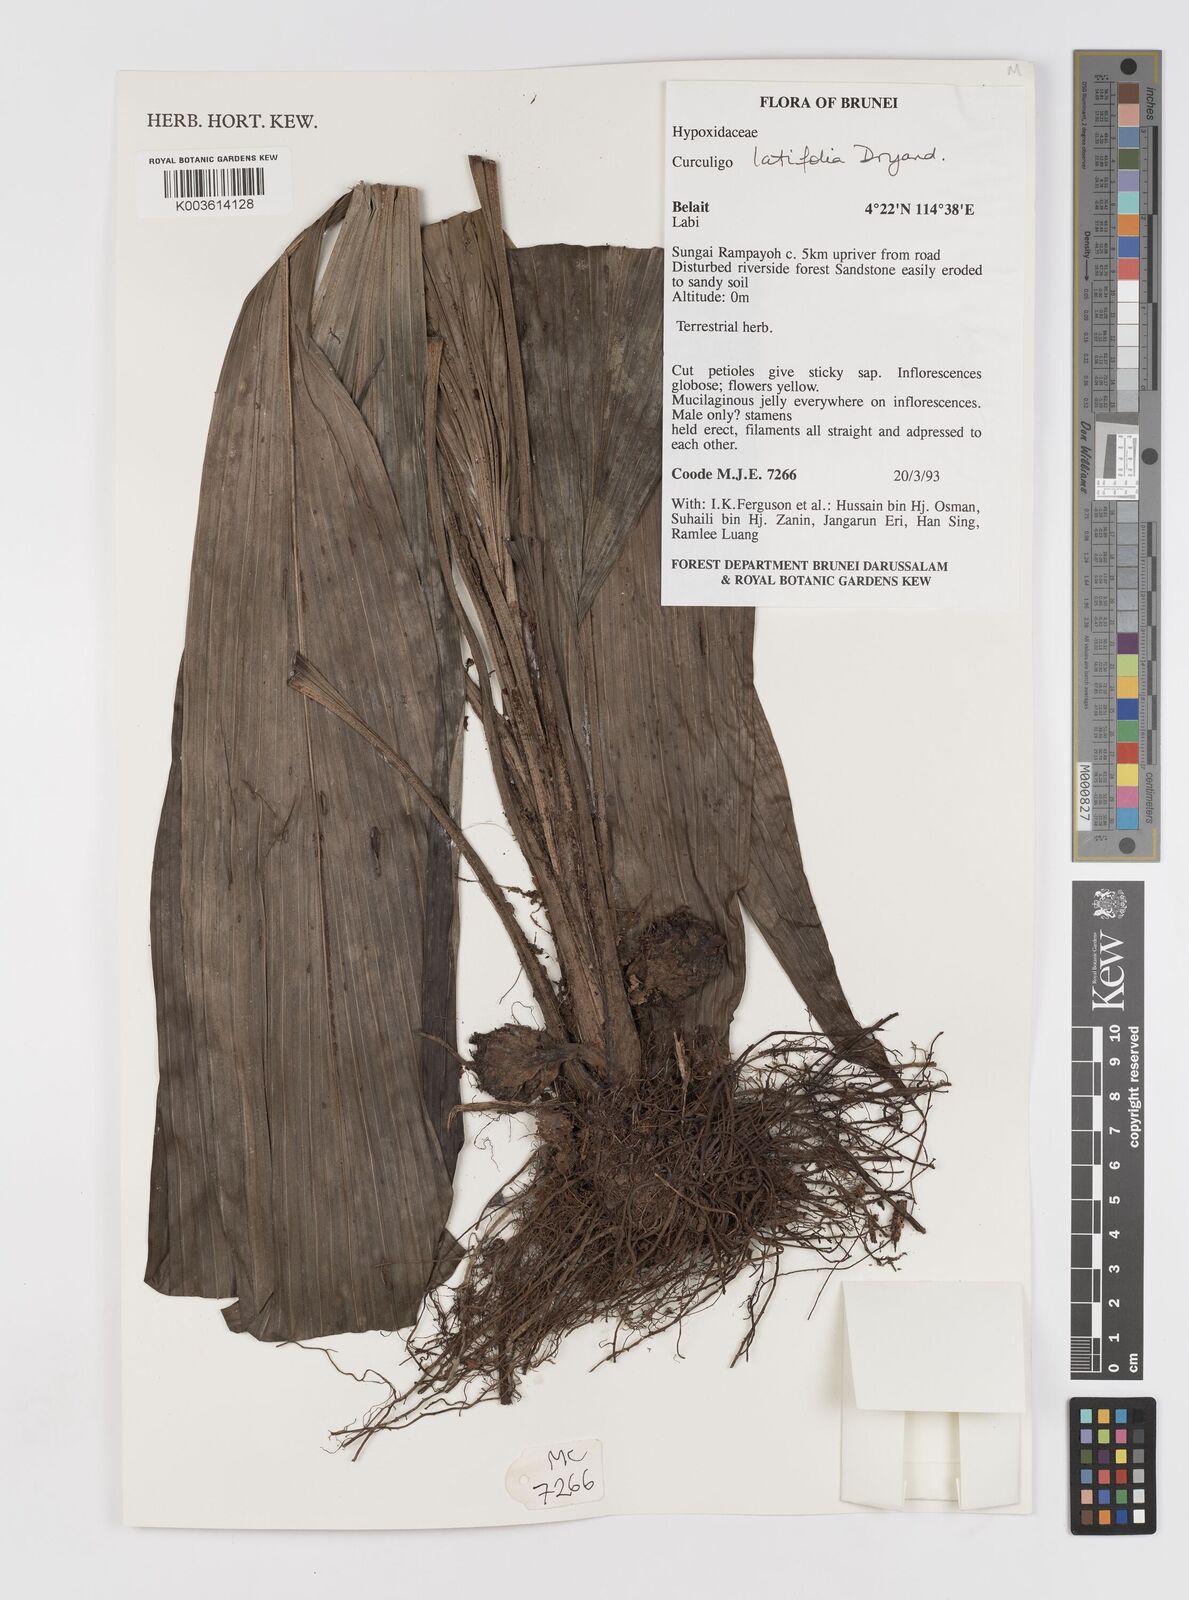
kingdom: Plantae
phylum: Tracheophyta
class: Liliopsida
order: Asparagales
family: Hypoxidaceae
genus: Curculigo
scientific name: Curculigo latifolia
